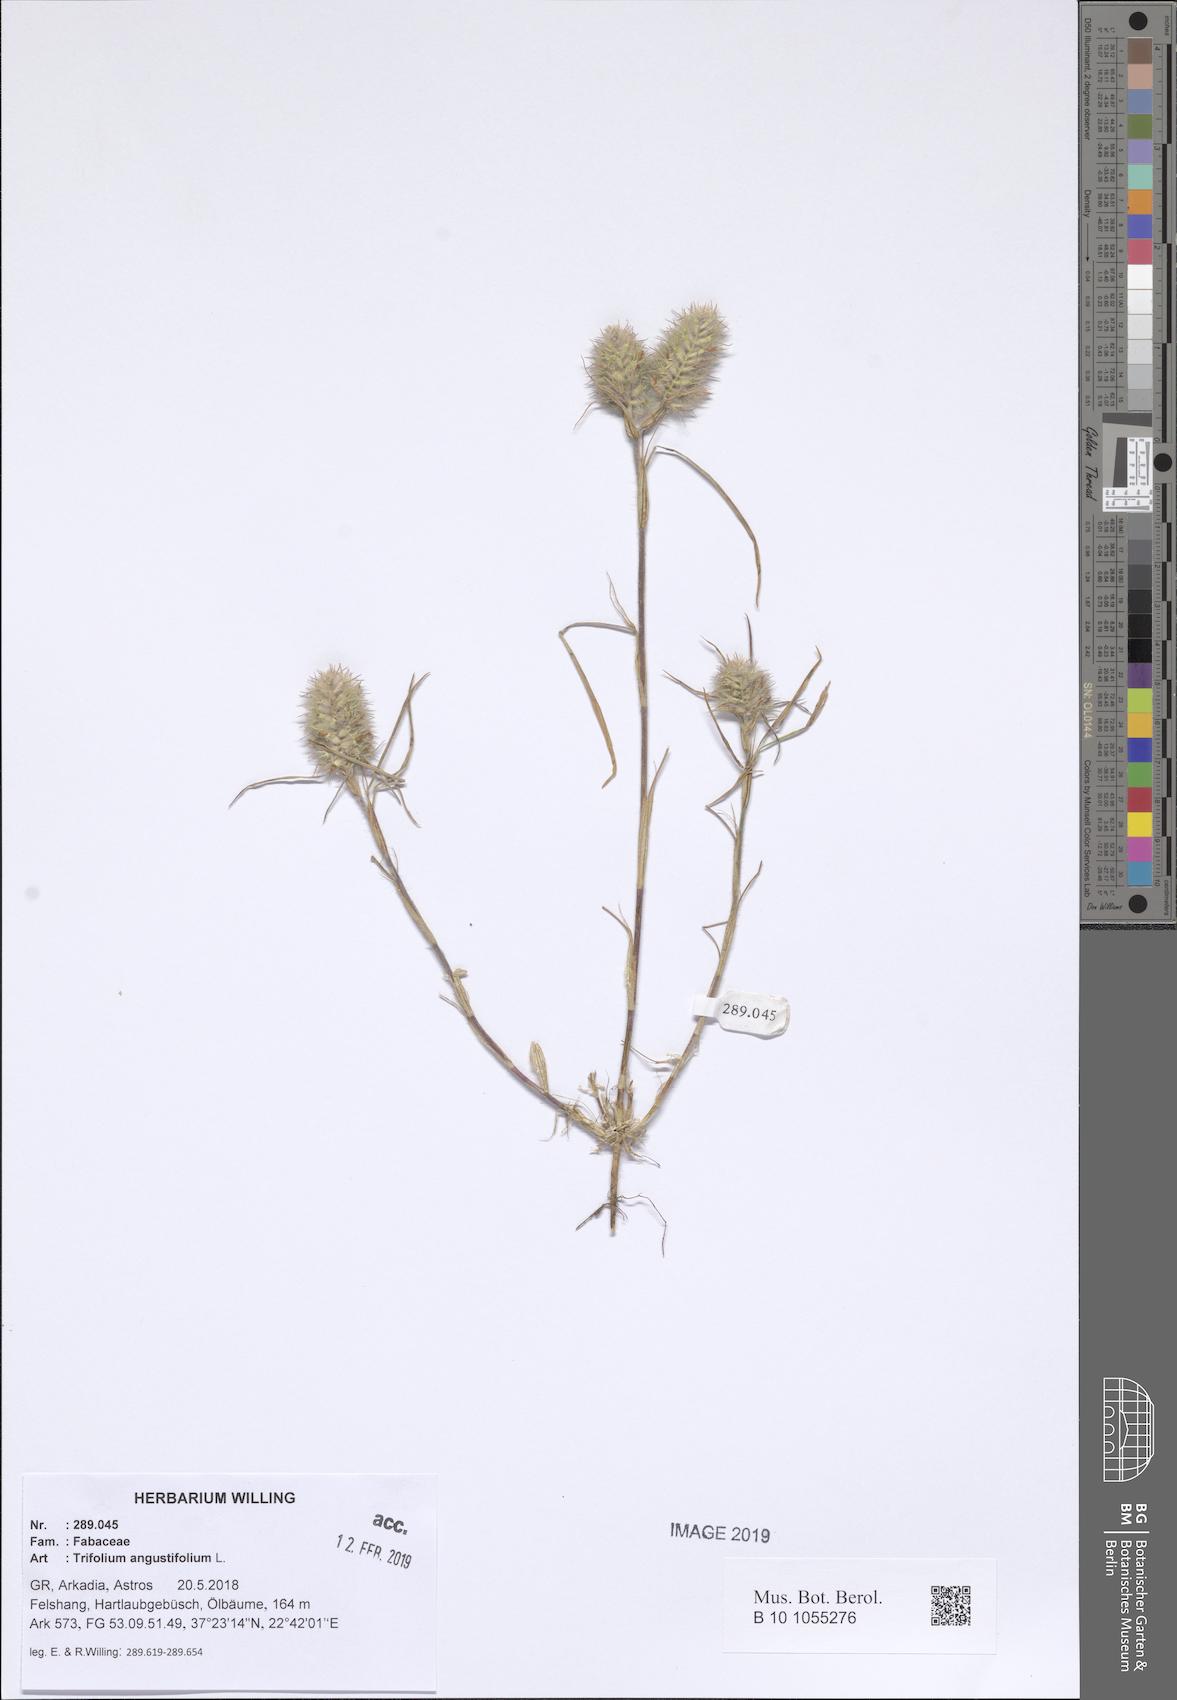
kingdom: Plantae
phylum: Tracheophyta
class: Magnoliopsida
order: Fabales
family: Fabaceae
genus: Trifolium
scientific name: Trifolium angustifolium
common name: Narrow clover
